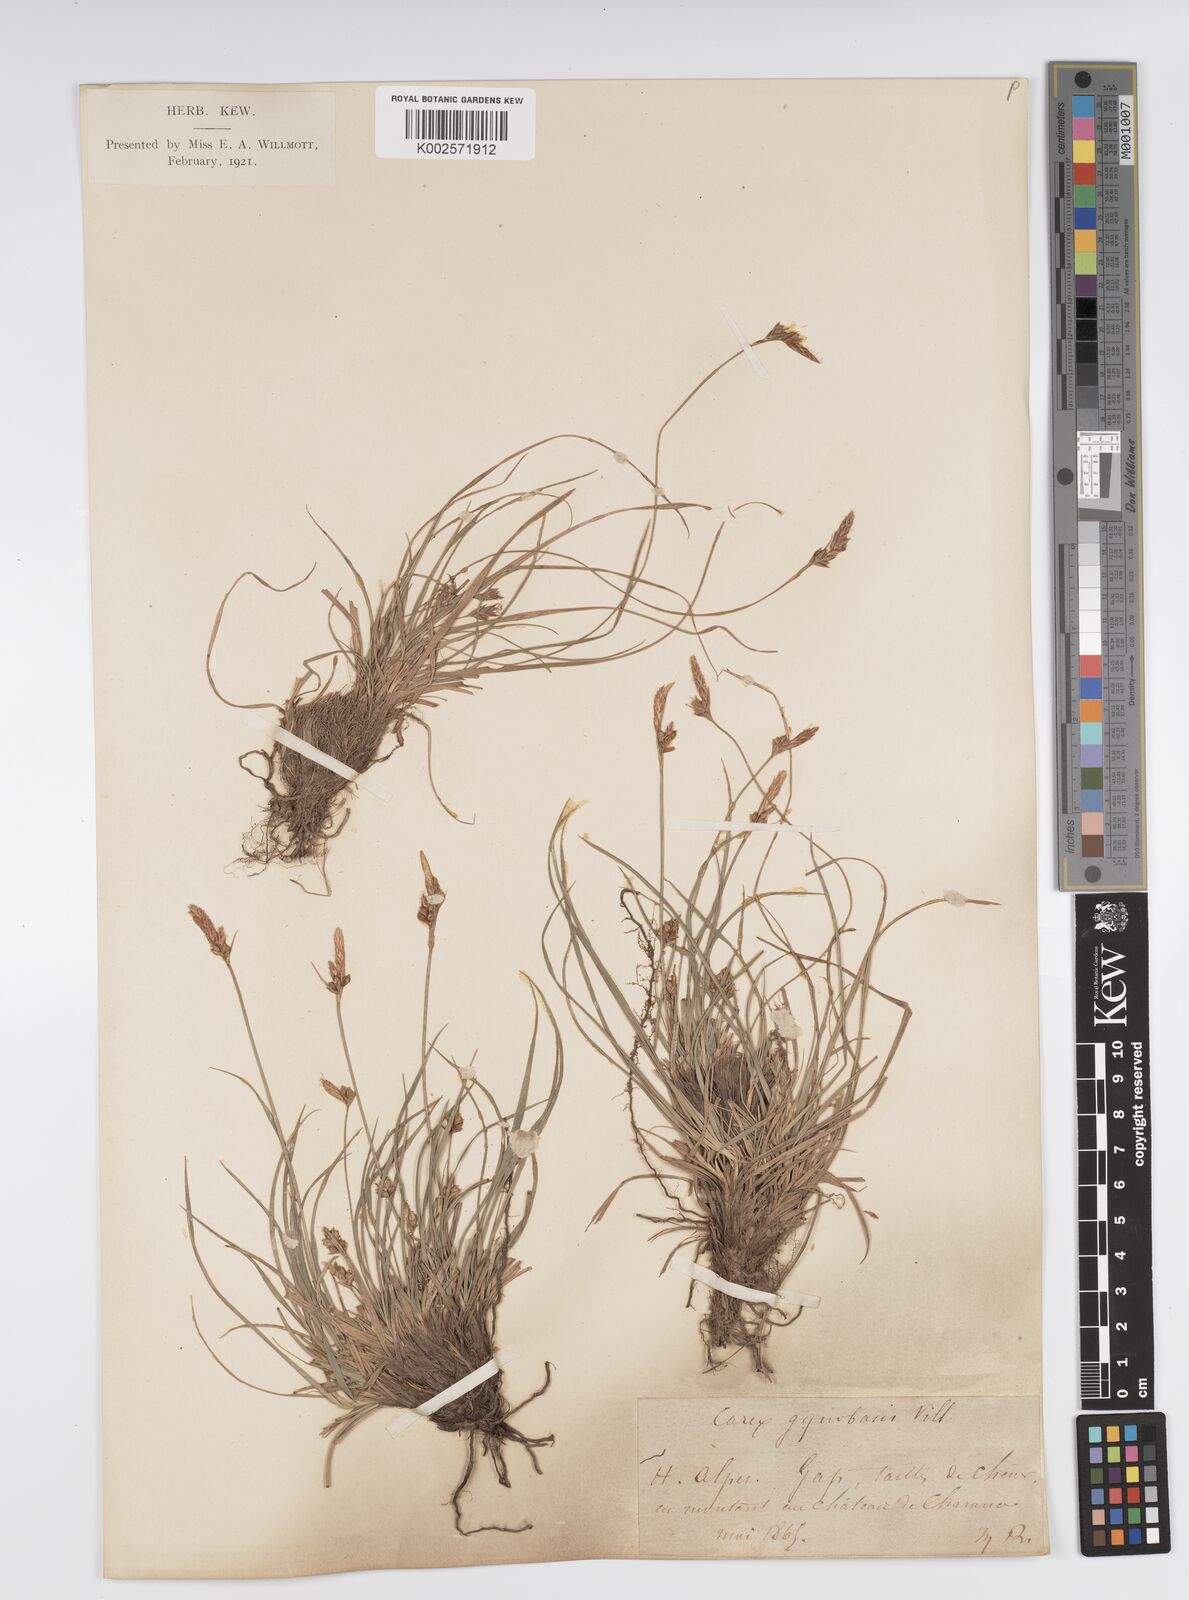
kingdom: Plantae
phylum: Tracheophyta
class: Liliopsida
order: Poales
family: Cyperaceae
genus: Carex
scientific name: Carex halleriana
